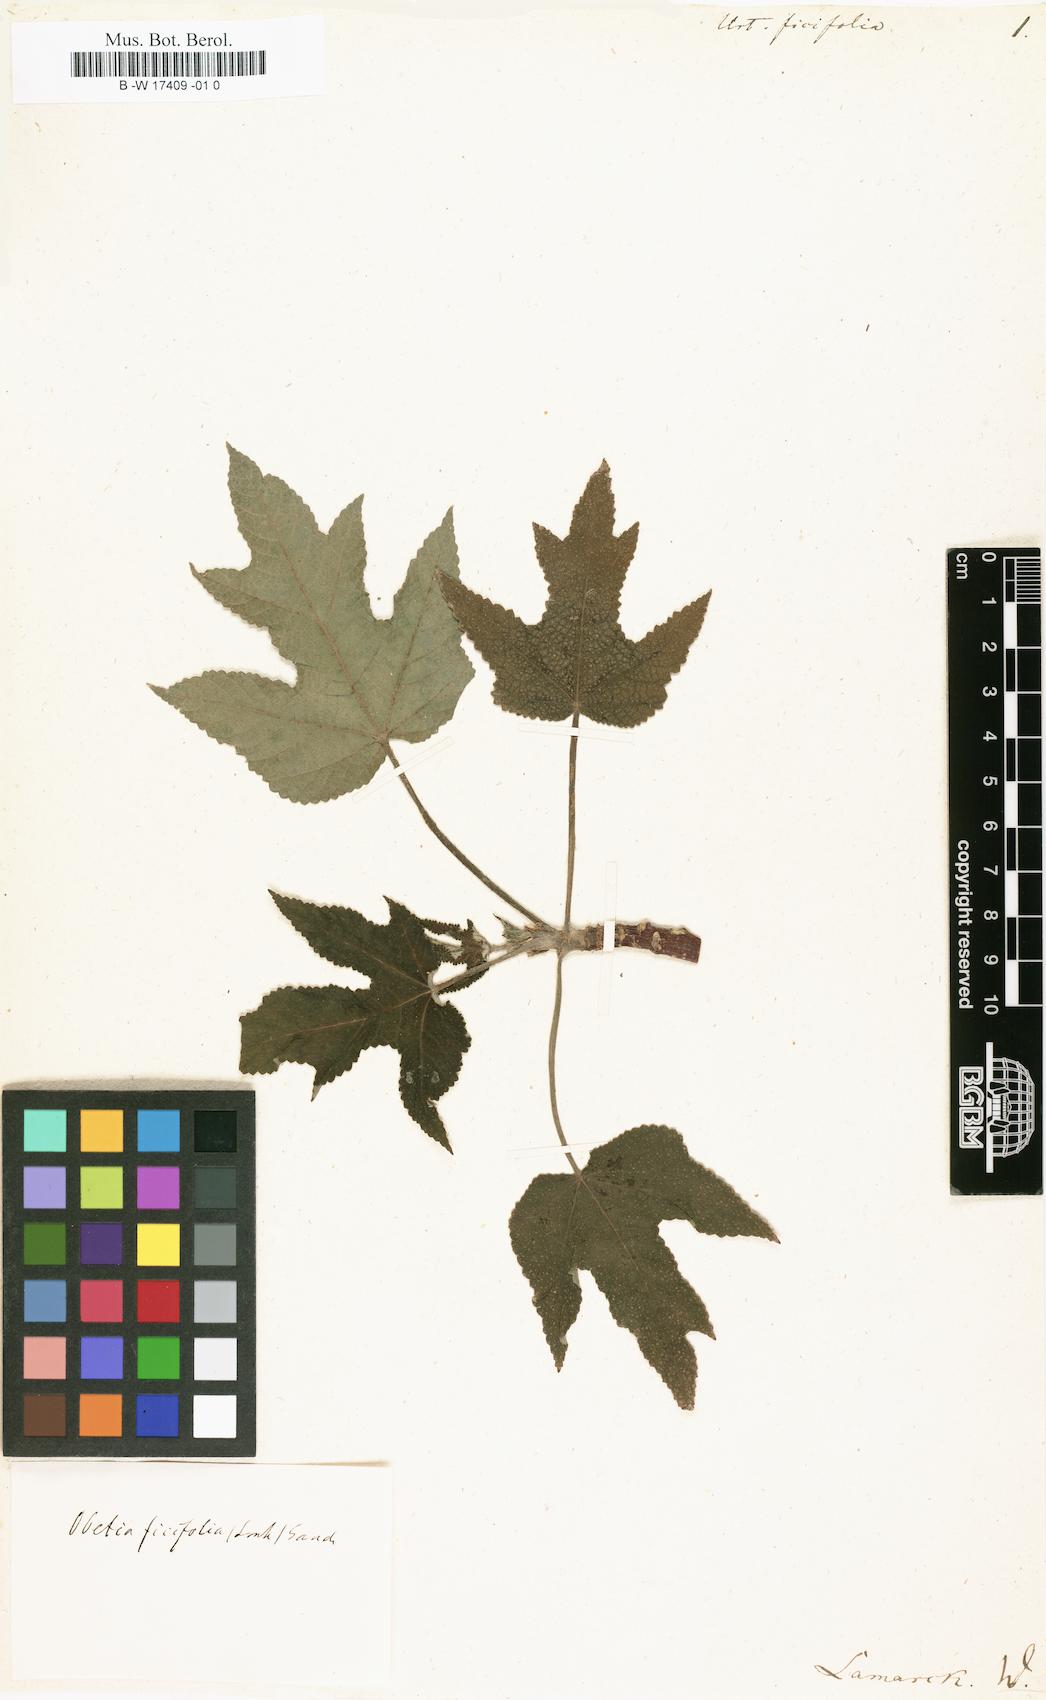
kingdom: Plantae
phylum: Tracheophyta
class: Magnoliopsida
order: Rosales
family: Urticaceae
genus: Obetia
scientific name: Obetia radula
